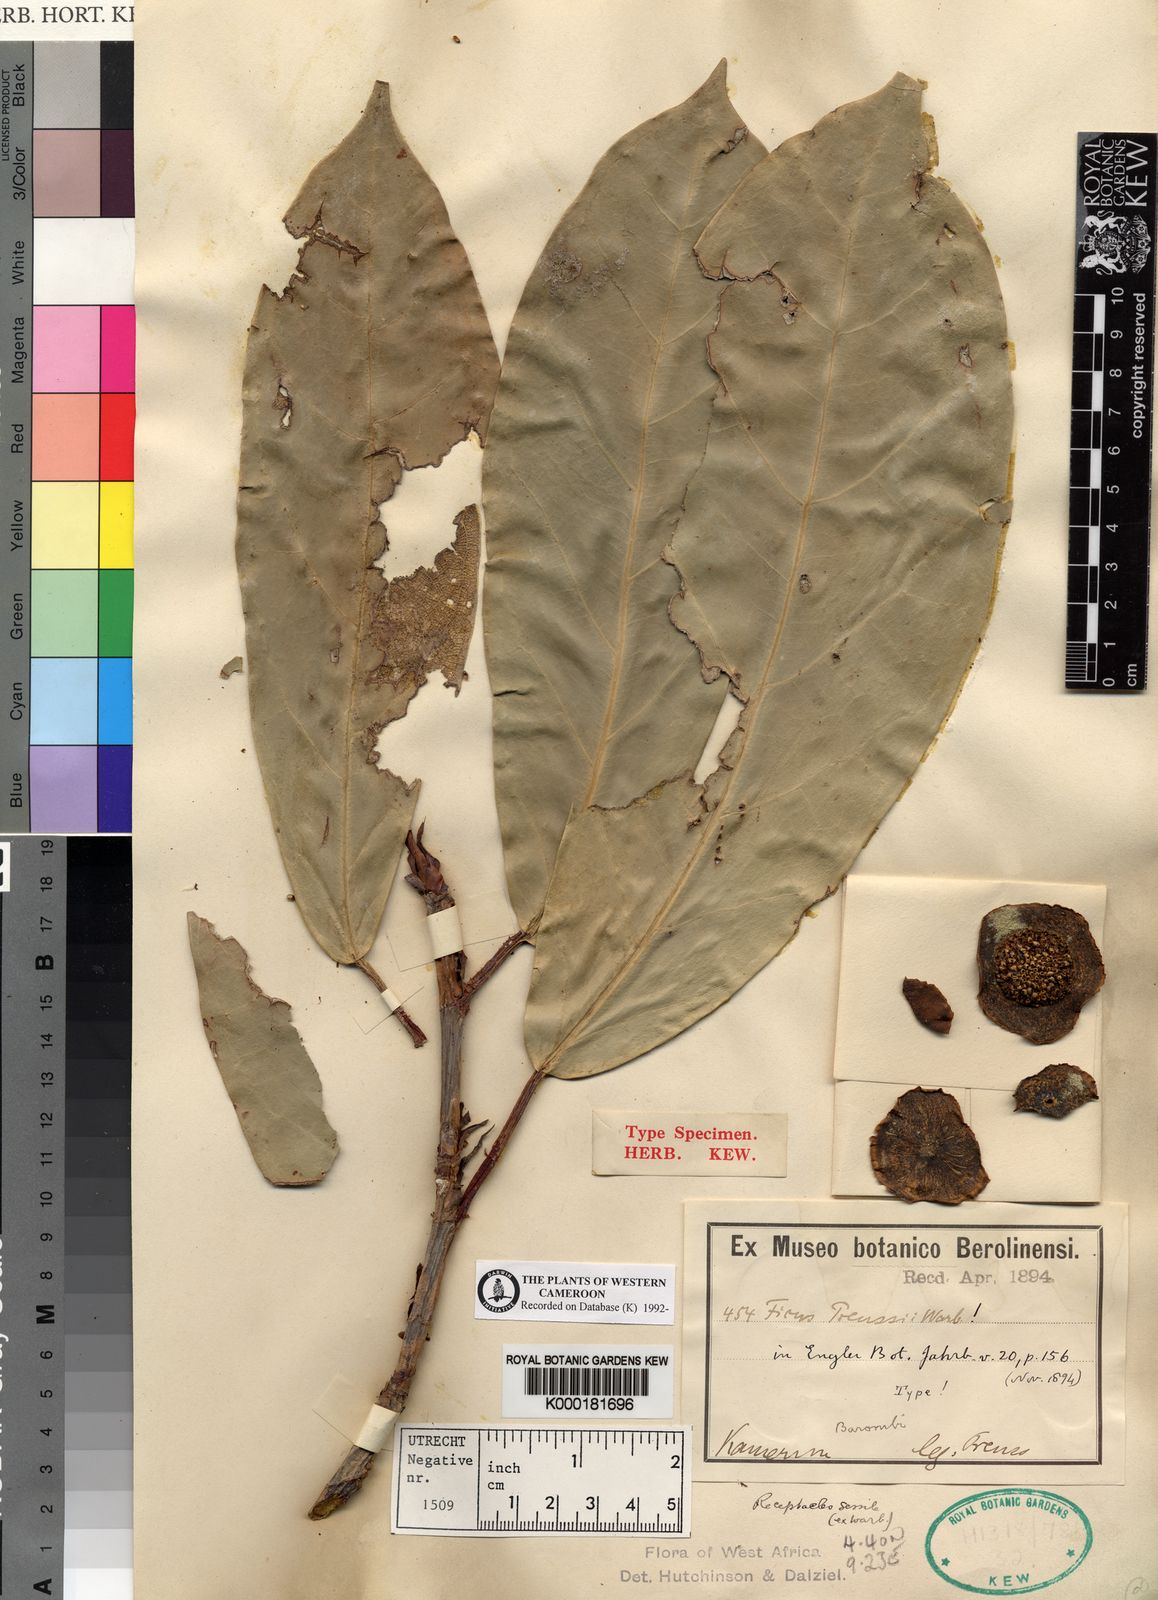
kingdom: Plantae
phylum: Tracheophyta
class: Magnoliopsida
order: Rosales
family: Moraceae
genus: Ficus
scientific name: Ficus preussii
